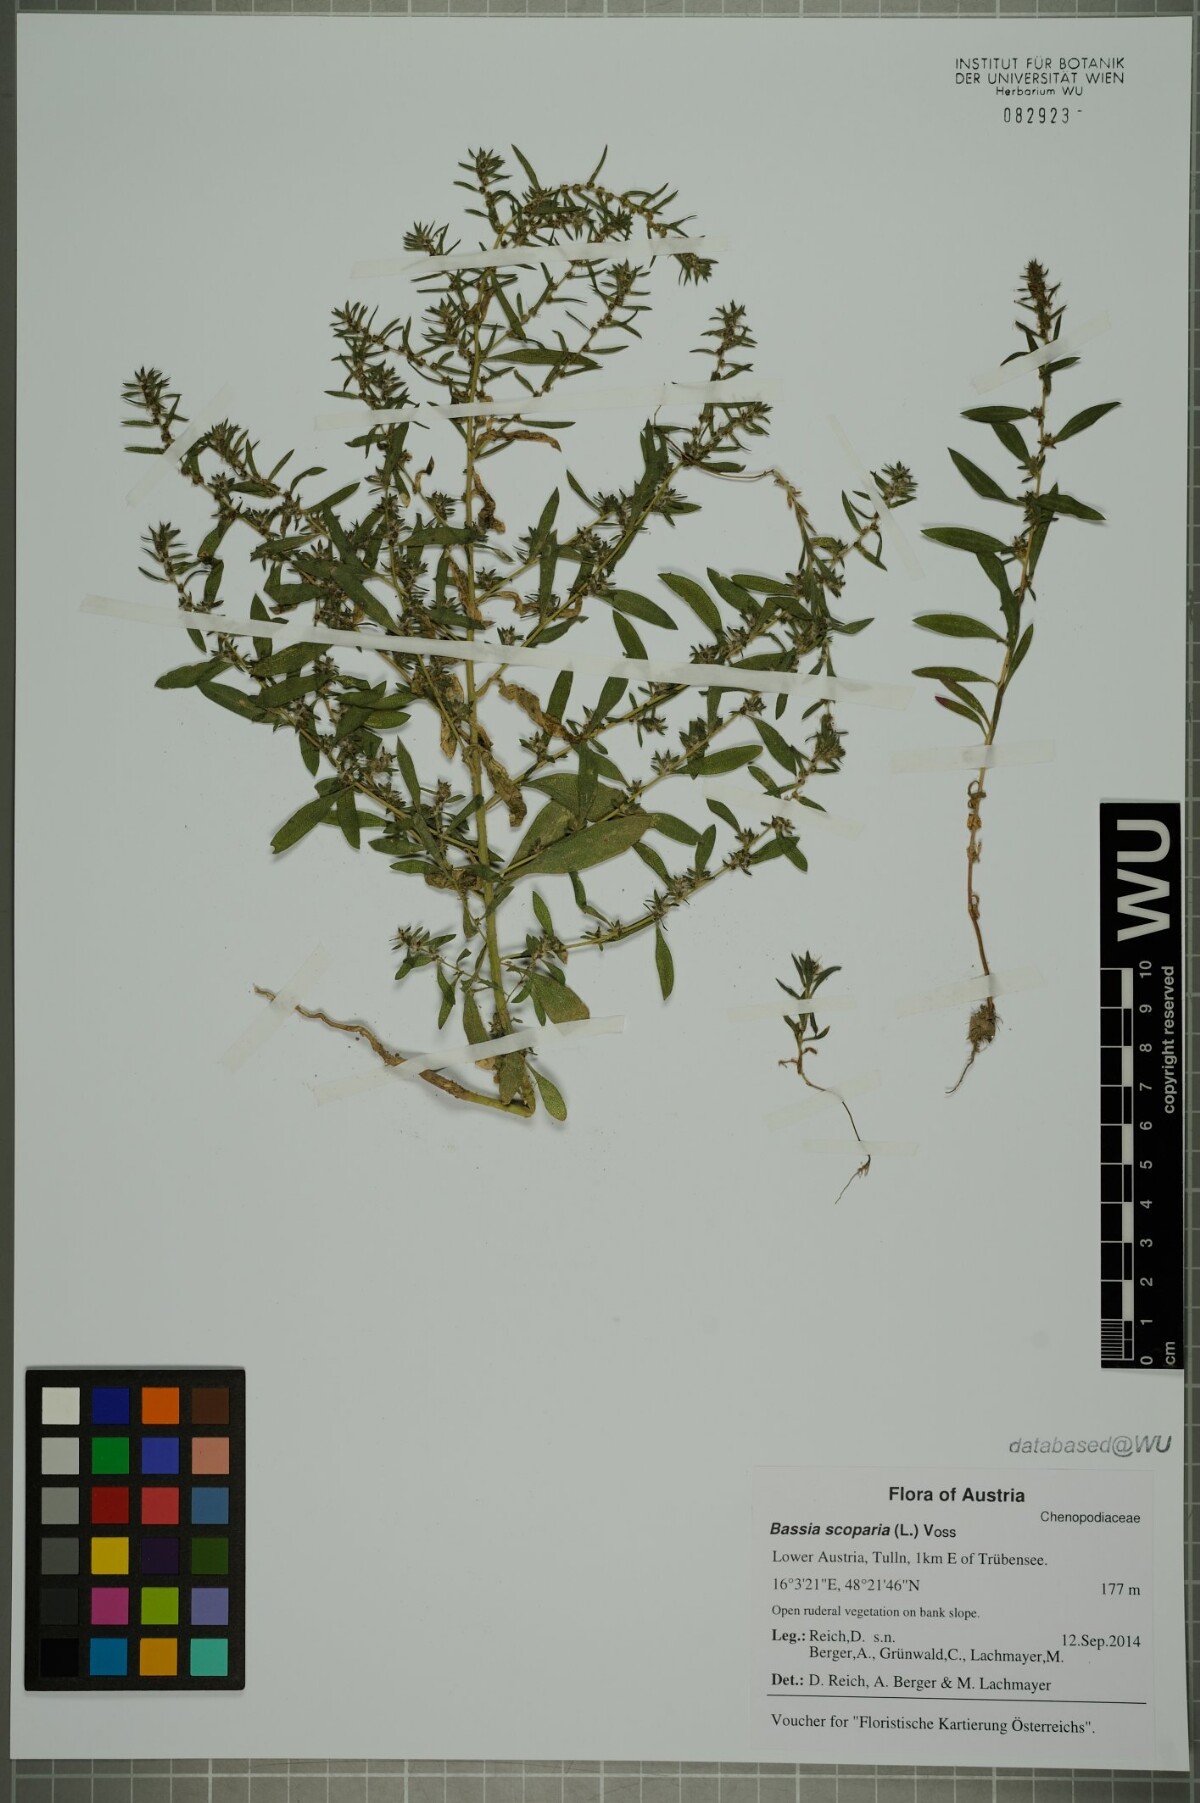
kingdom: Plantae
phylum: Tracheophyta
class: Magnoliopsida
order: Caryophyllales
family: Amaranthaceae
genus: Bassia
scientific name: Bassia scoparia
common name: Belvedere
